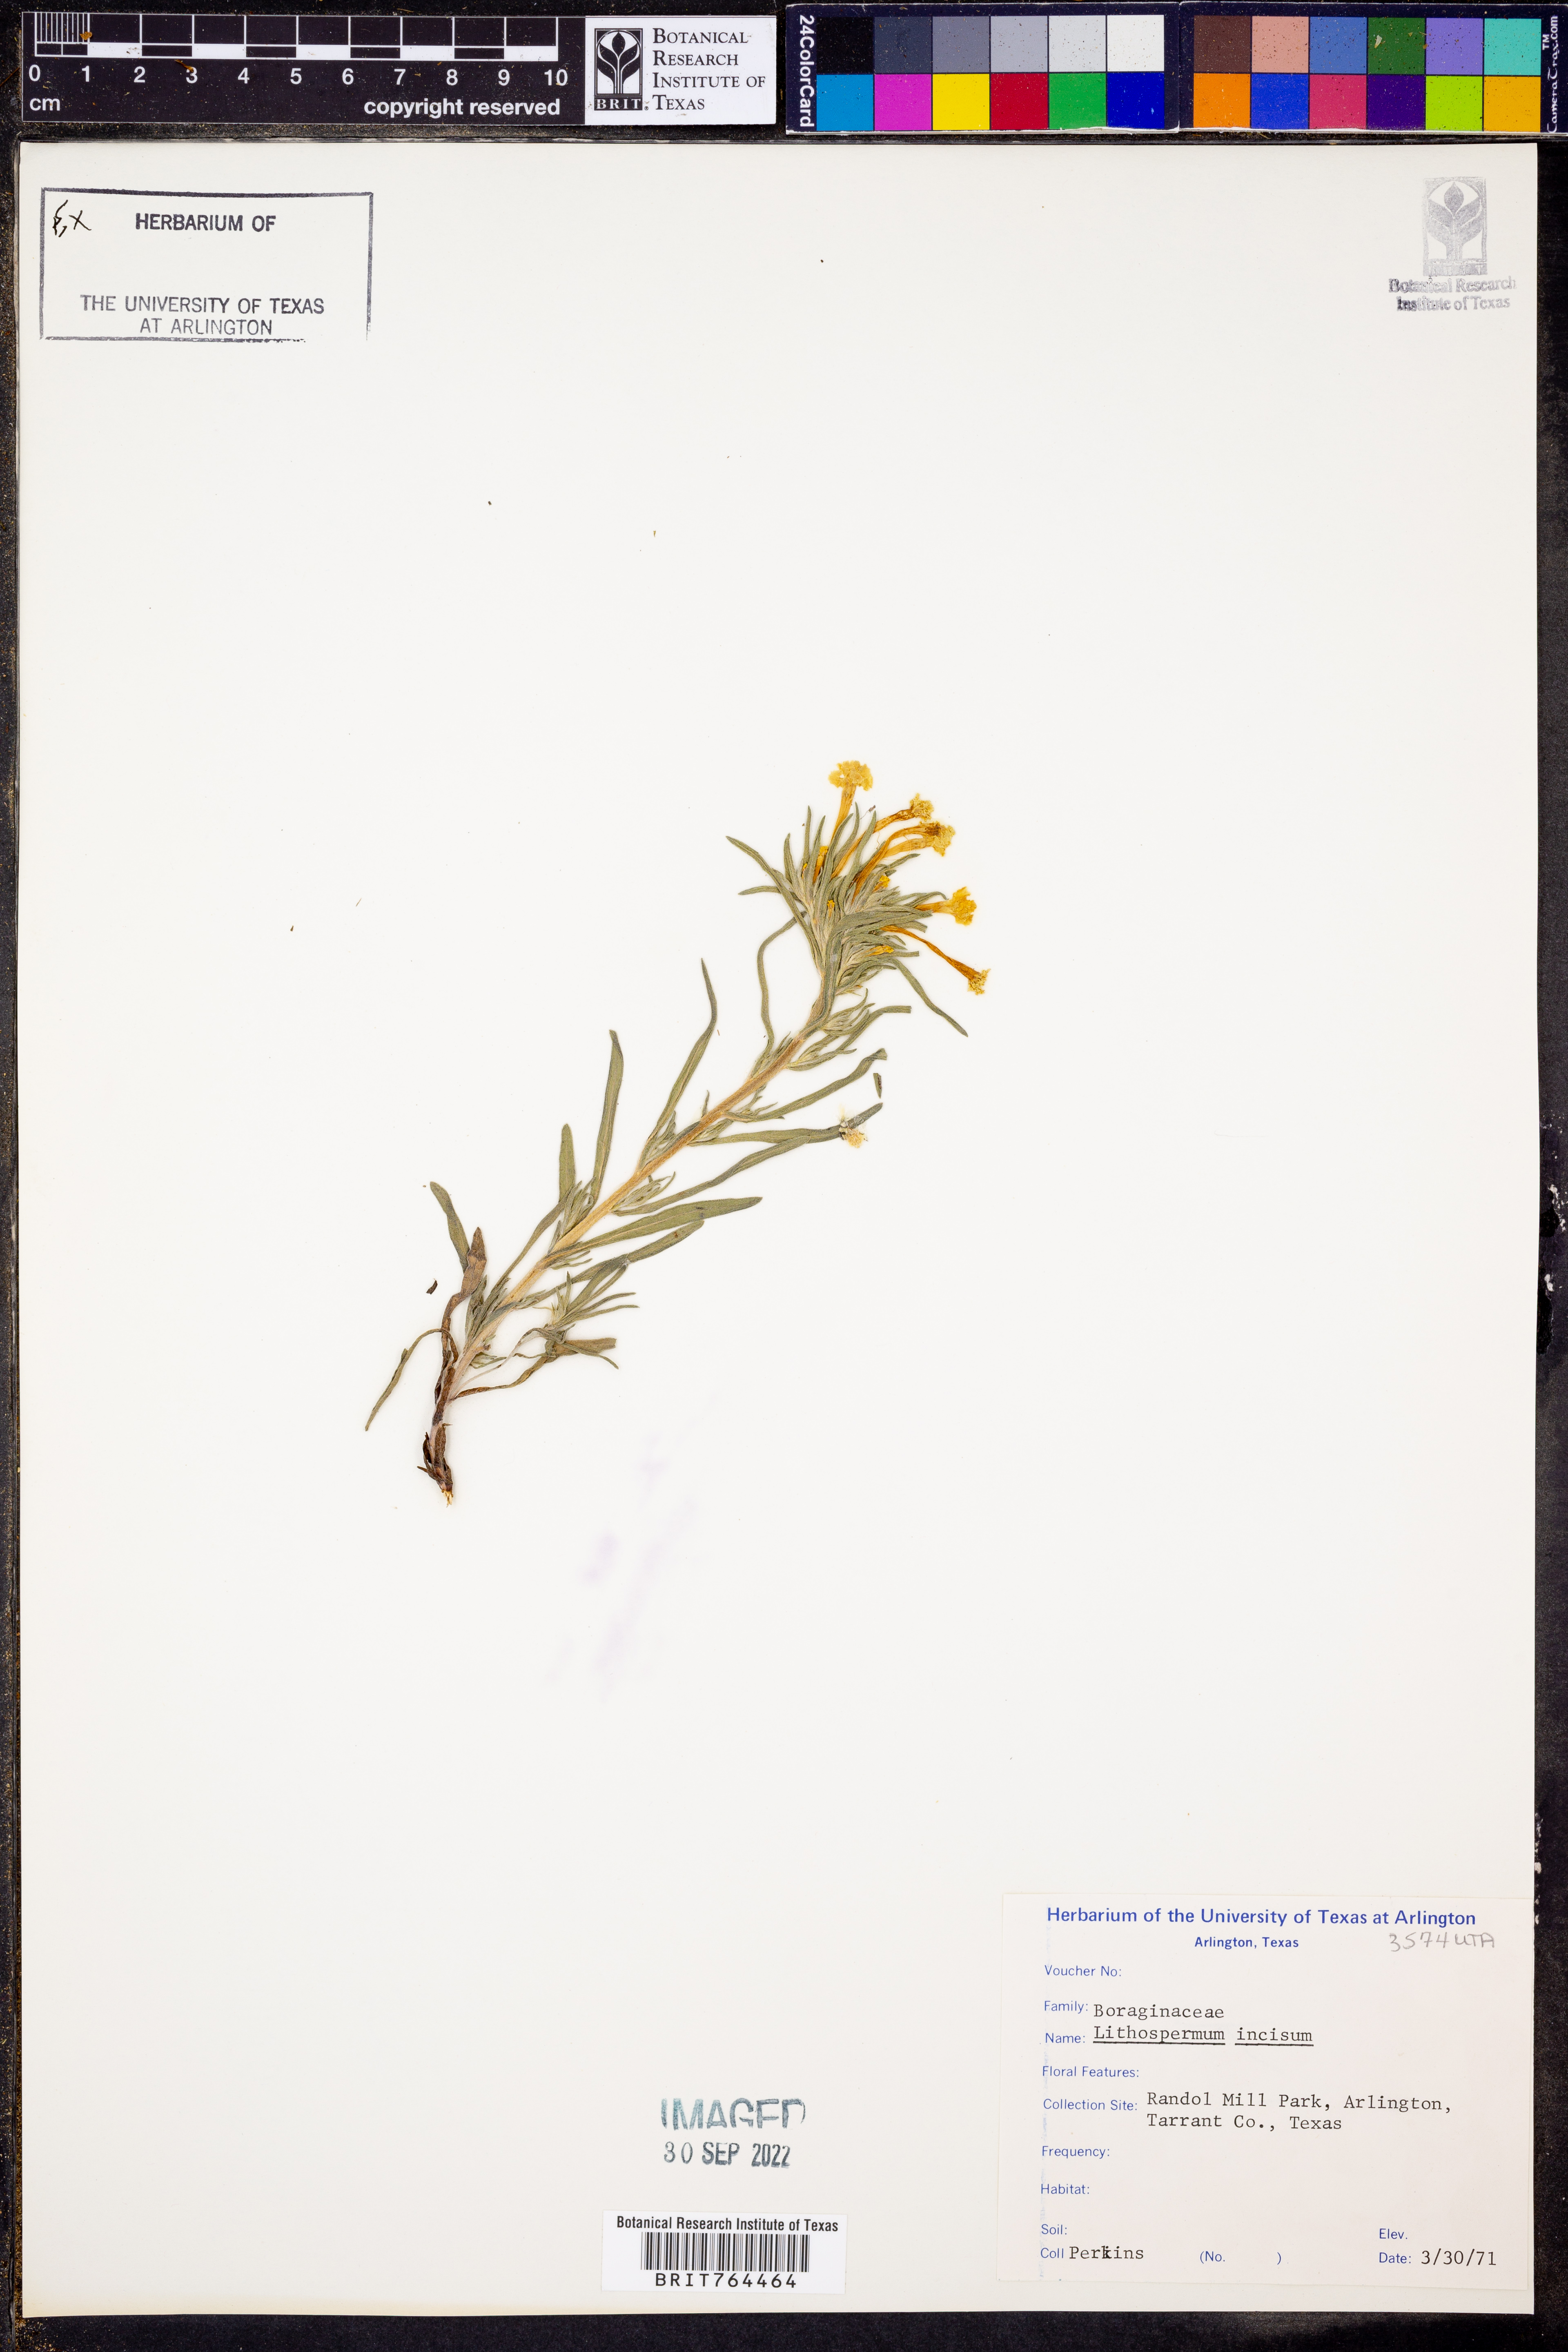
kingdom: Plantae
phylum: Tracheophyta
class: Magnoliopsida
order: Boraginales
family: Boraginaceae
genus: Lithospermum
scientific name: Lithospermum incisum
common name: Fringed gromwell
